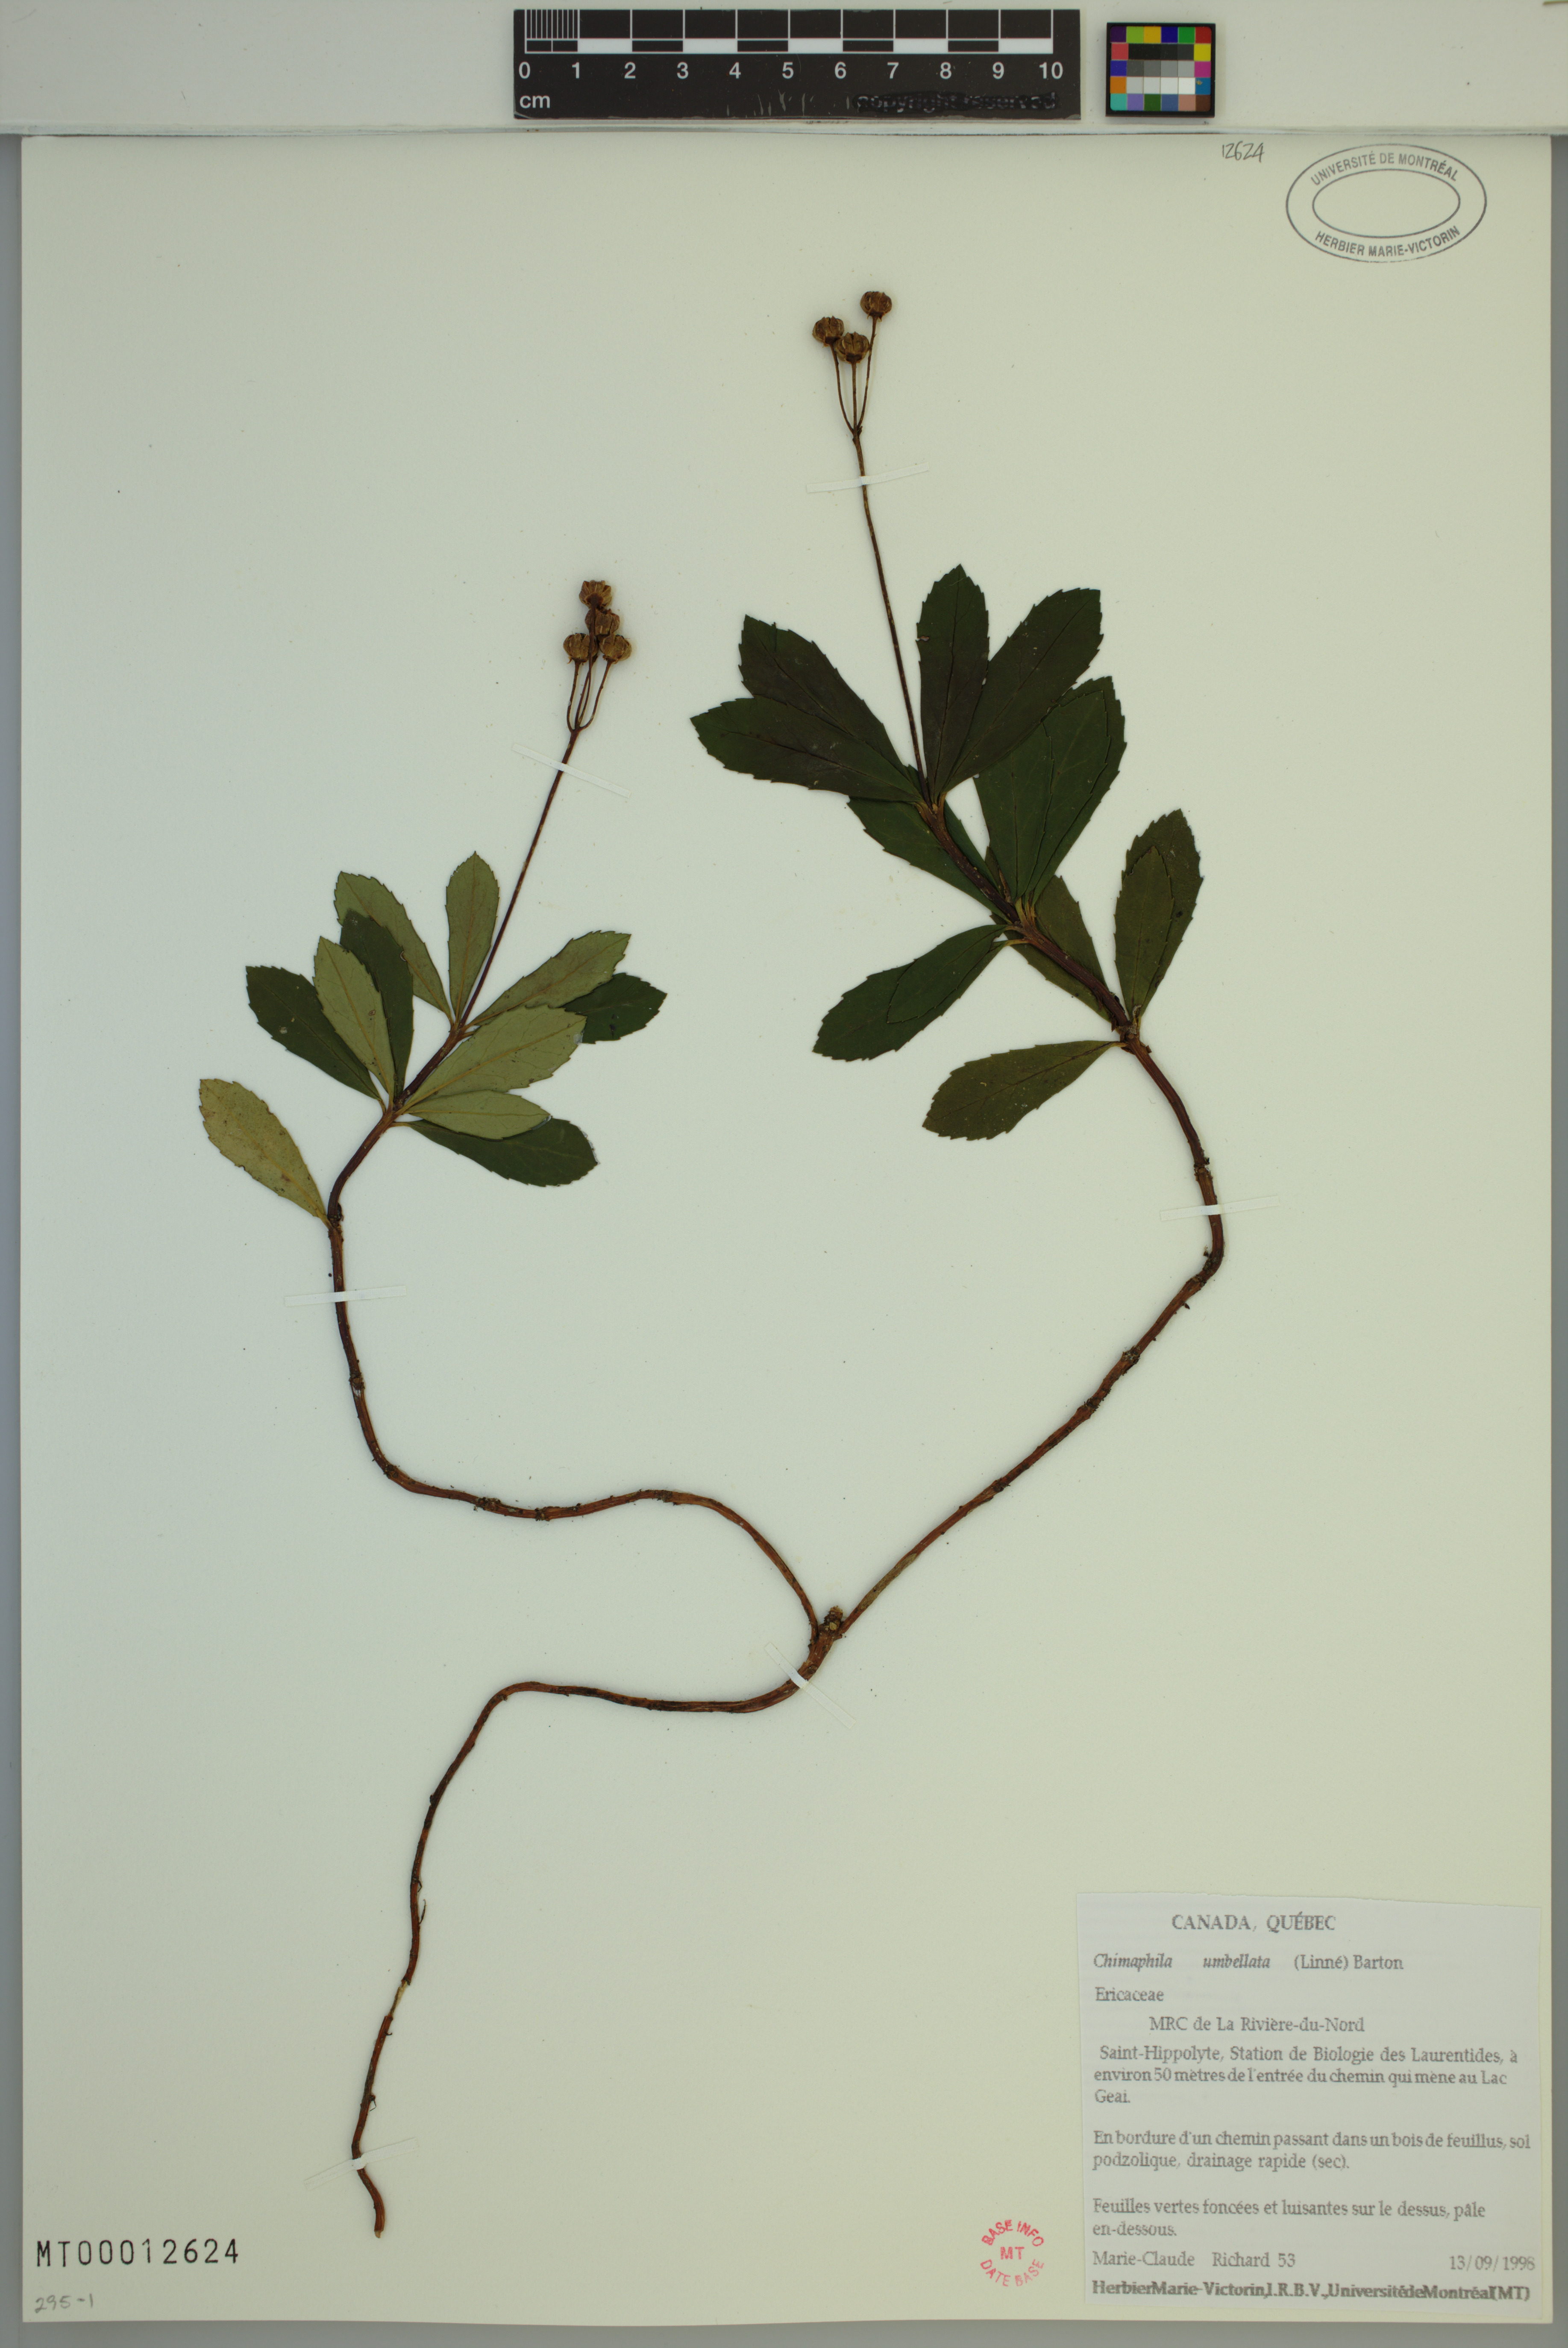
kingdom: Plantae
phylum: Tracheophyta
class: Magnoliopsida
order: Ericales
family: Ericaceae
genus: Chimaphila
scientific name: Chimaphila umbellata
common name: Pipsissewa
